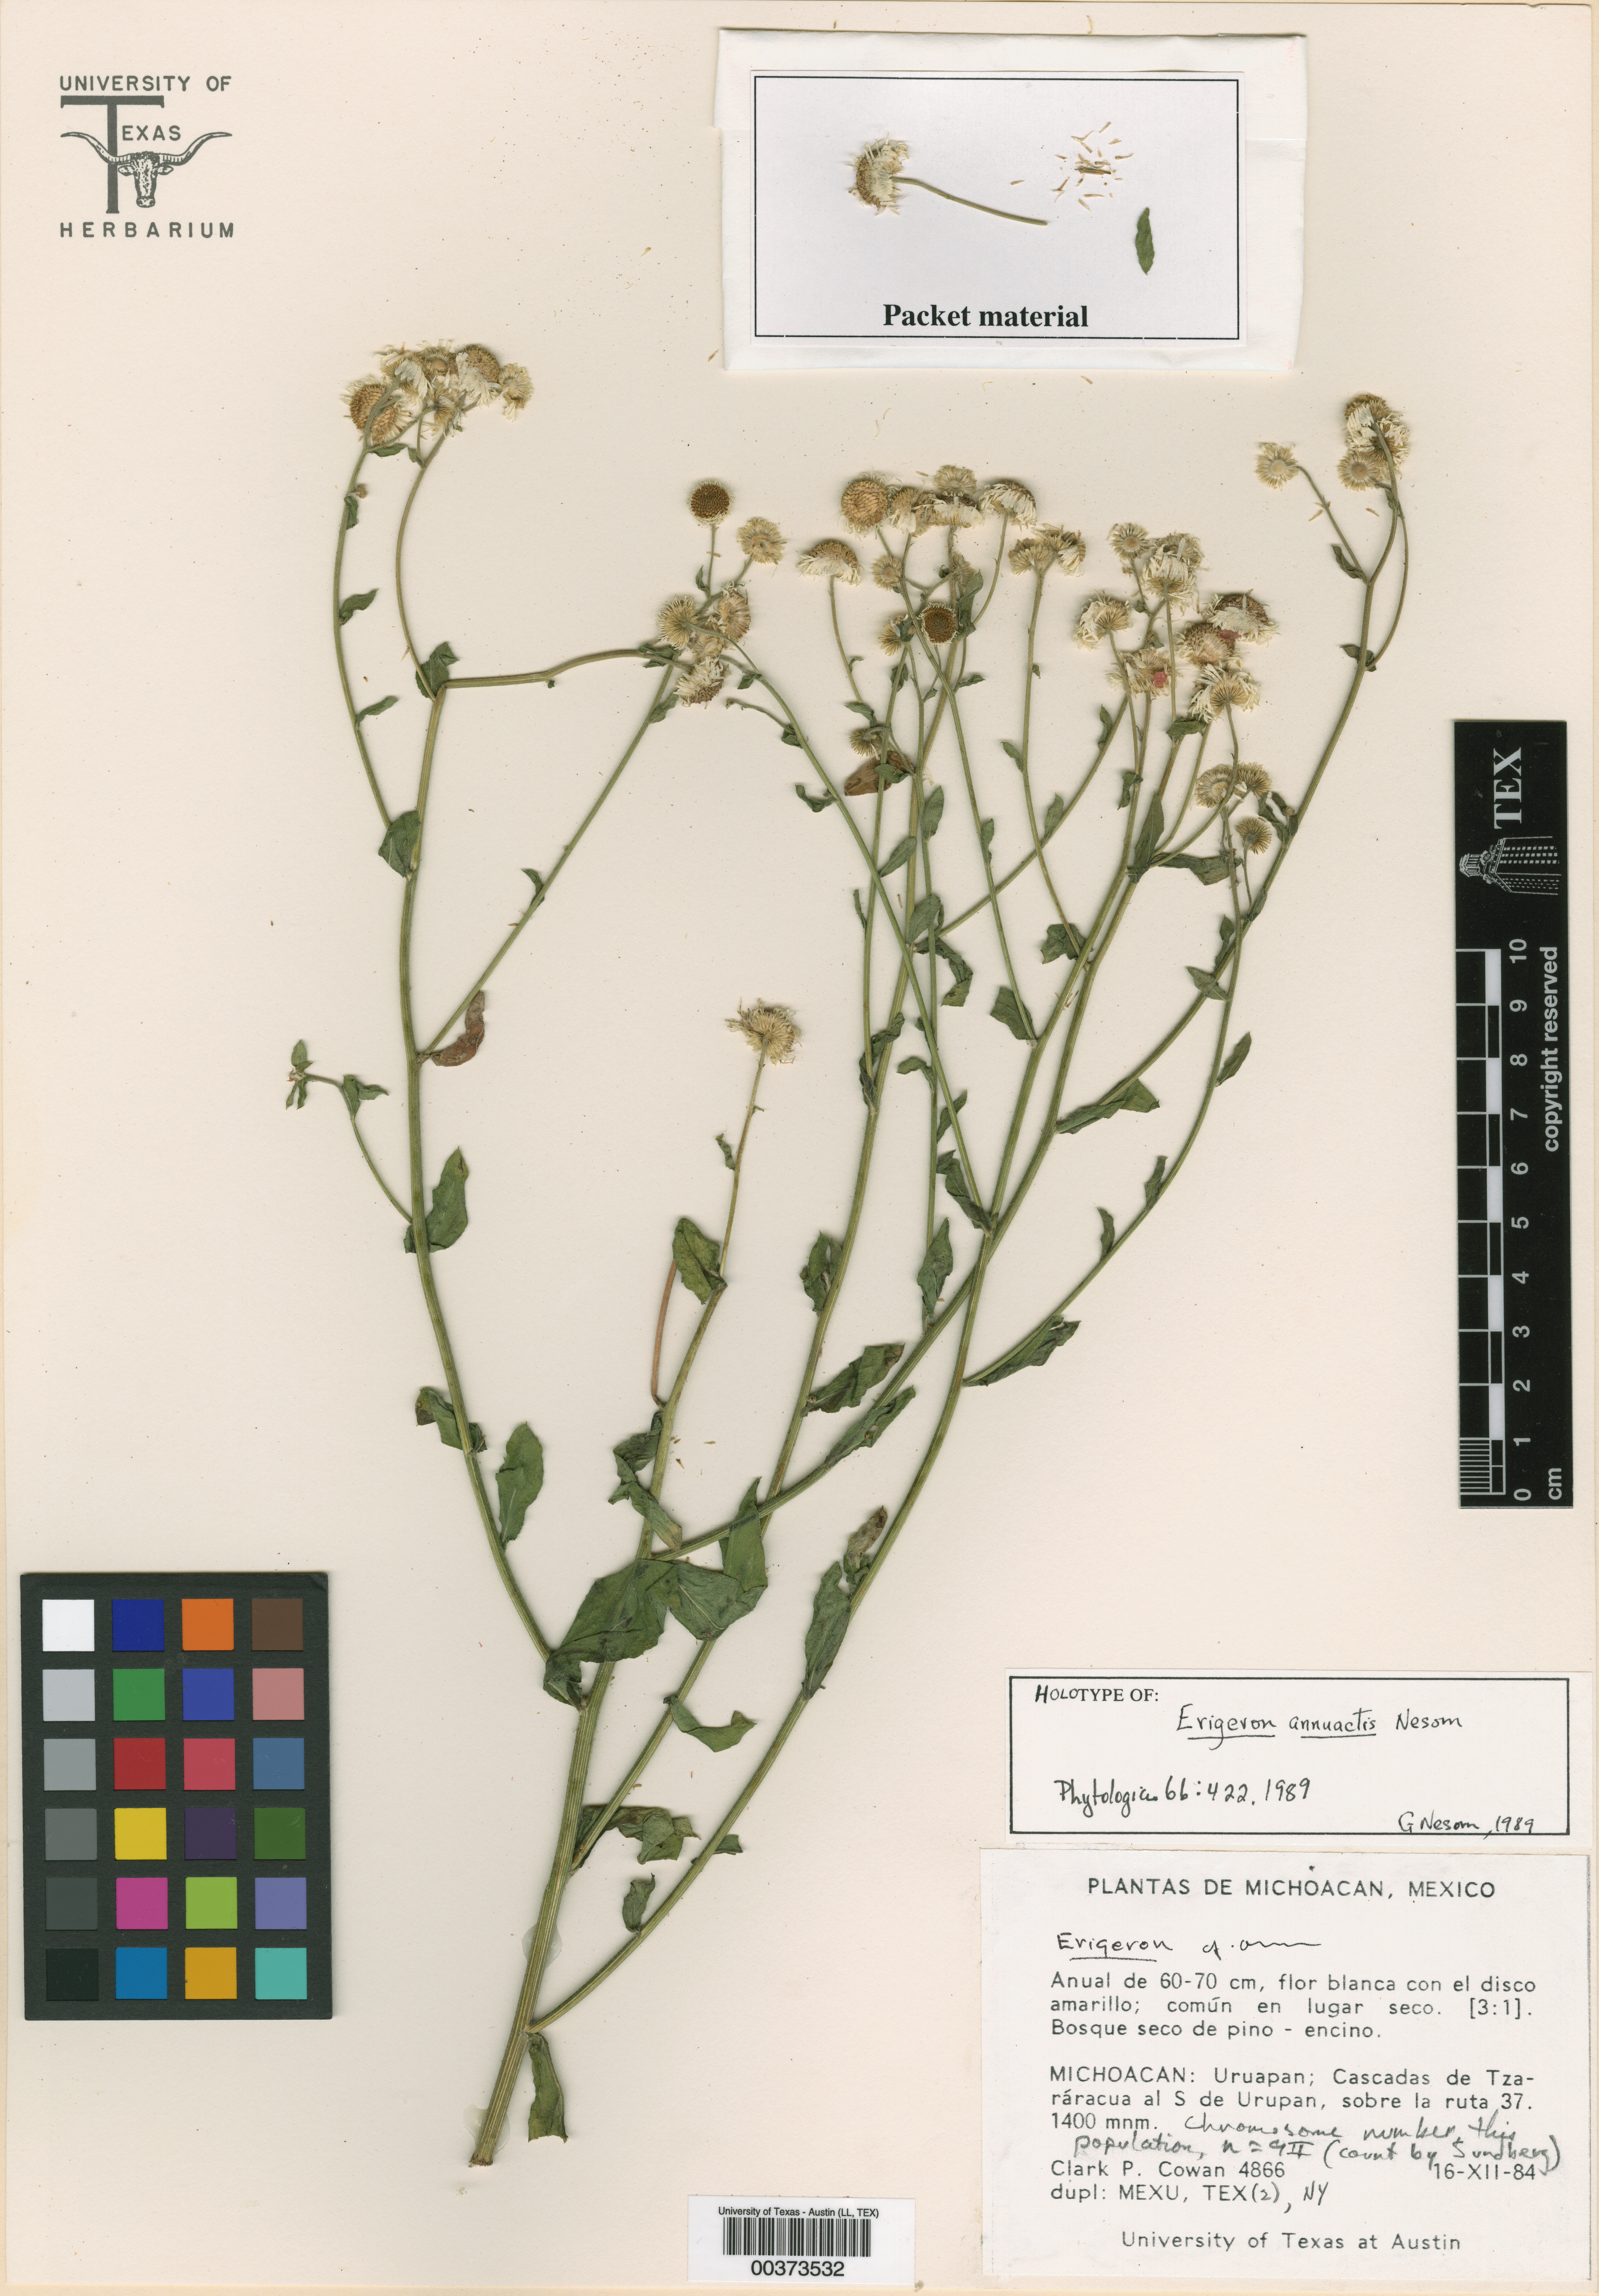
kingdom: Plantae
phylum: Tracheophyta
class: Magnoliopsida
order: Asterales
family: Asteraceae
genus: Erigeron
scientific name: Erigeron annuactis
